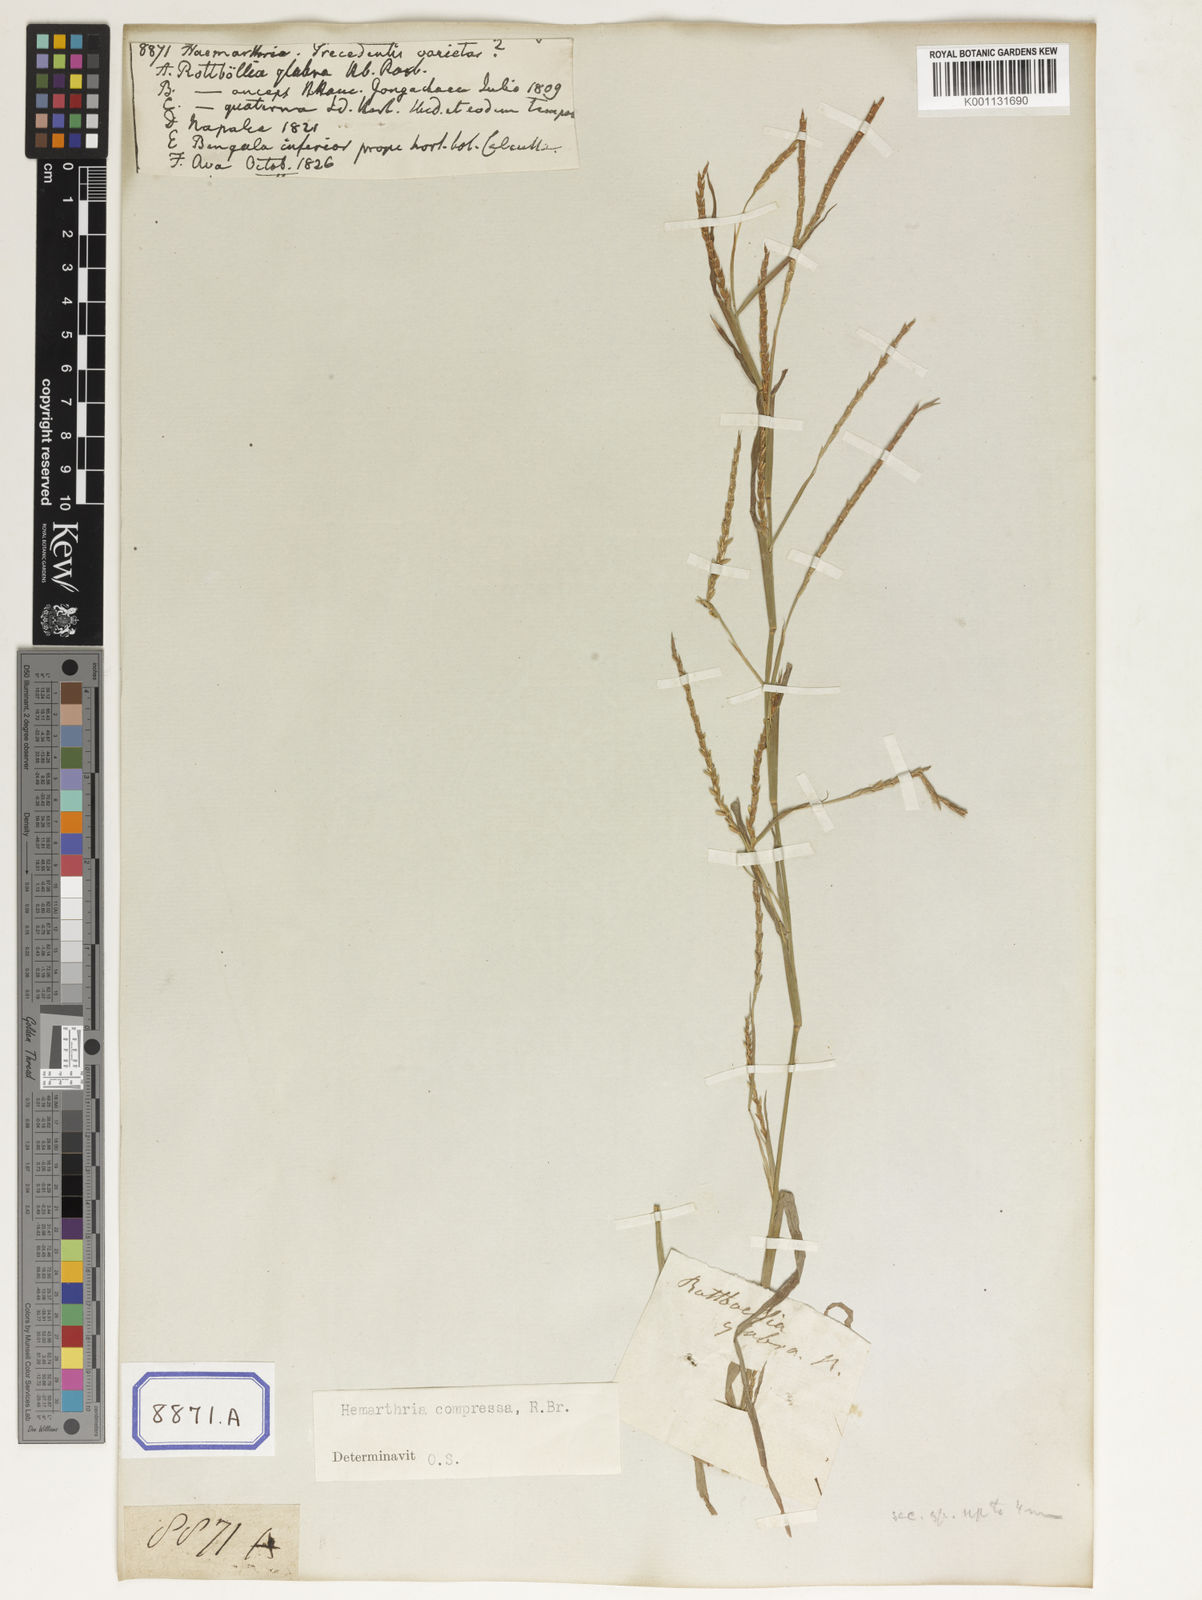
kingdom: Plantae
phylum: Tracheophyta
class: Liliopsida
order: Poales
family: Poaceae
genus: Hemarthria
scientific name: Hemarthria
